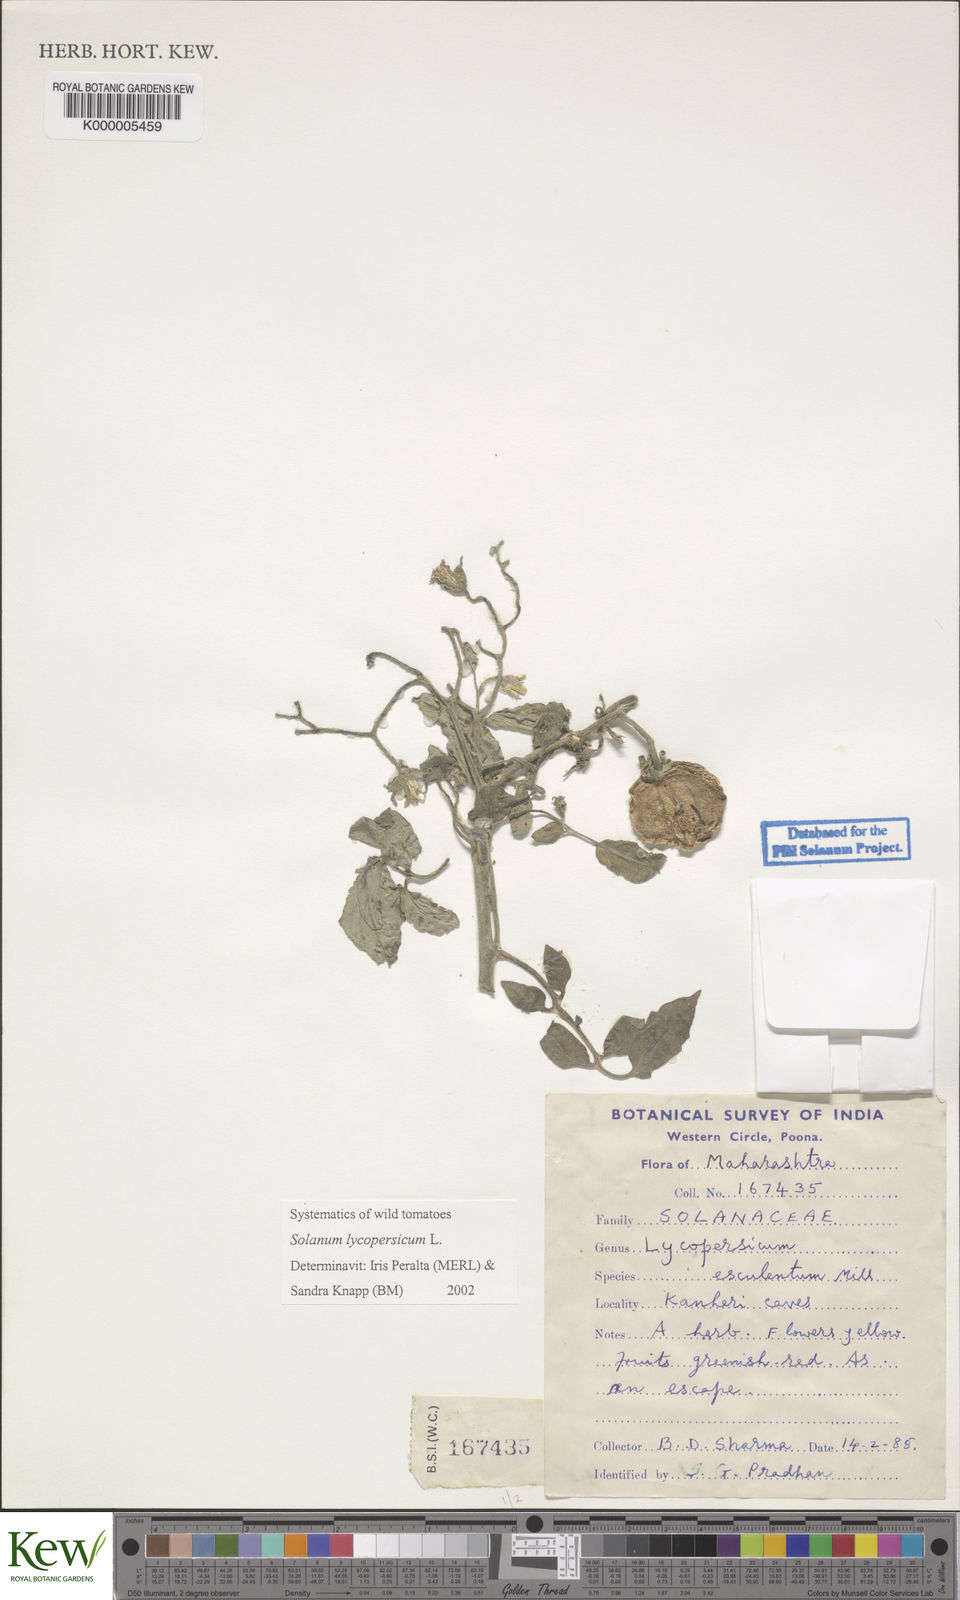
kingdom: Plantae
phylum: Tracheophyta
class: Magnoliopsida
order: Solanales
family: Solanaceae
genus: Solanum
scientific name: Solanum lycopersicum
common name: Garden tomato
